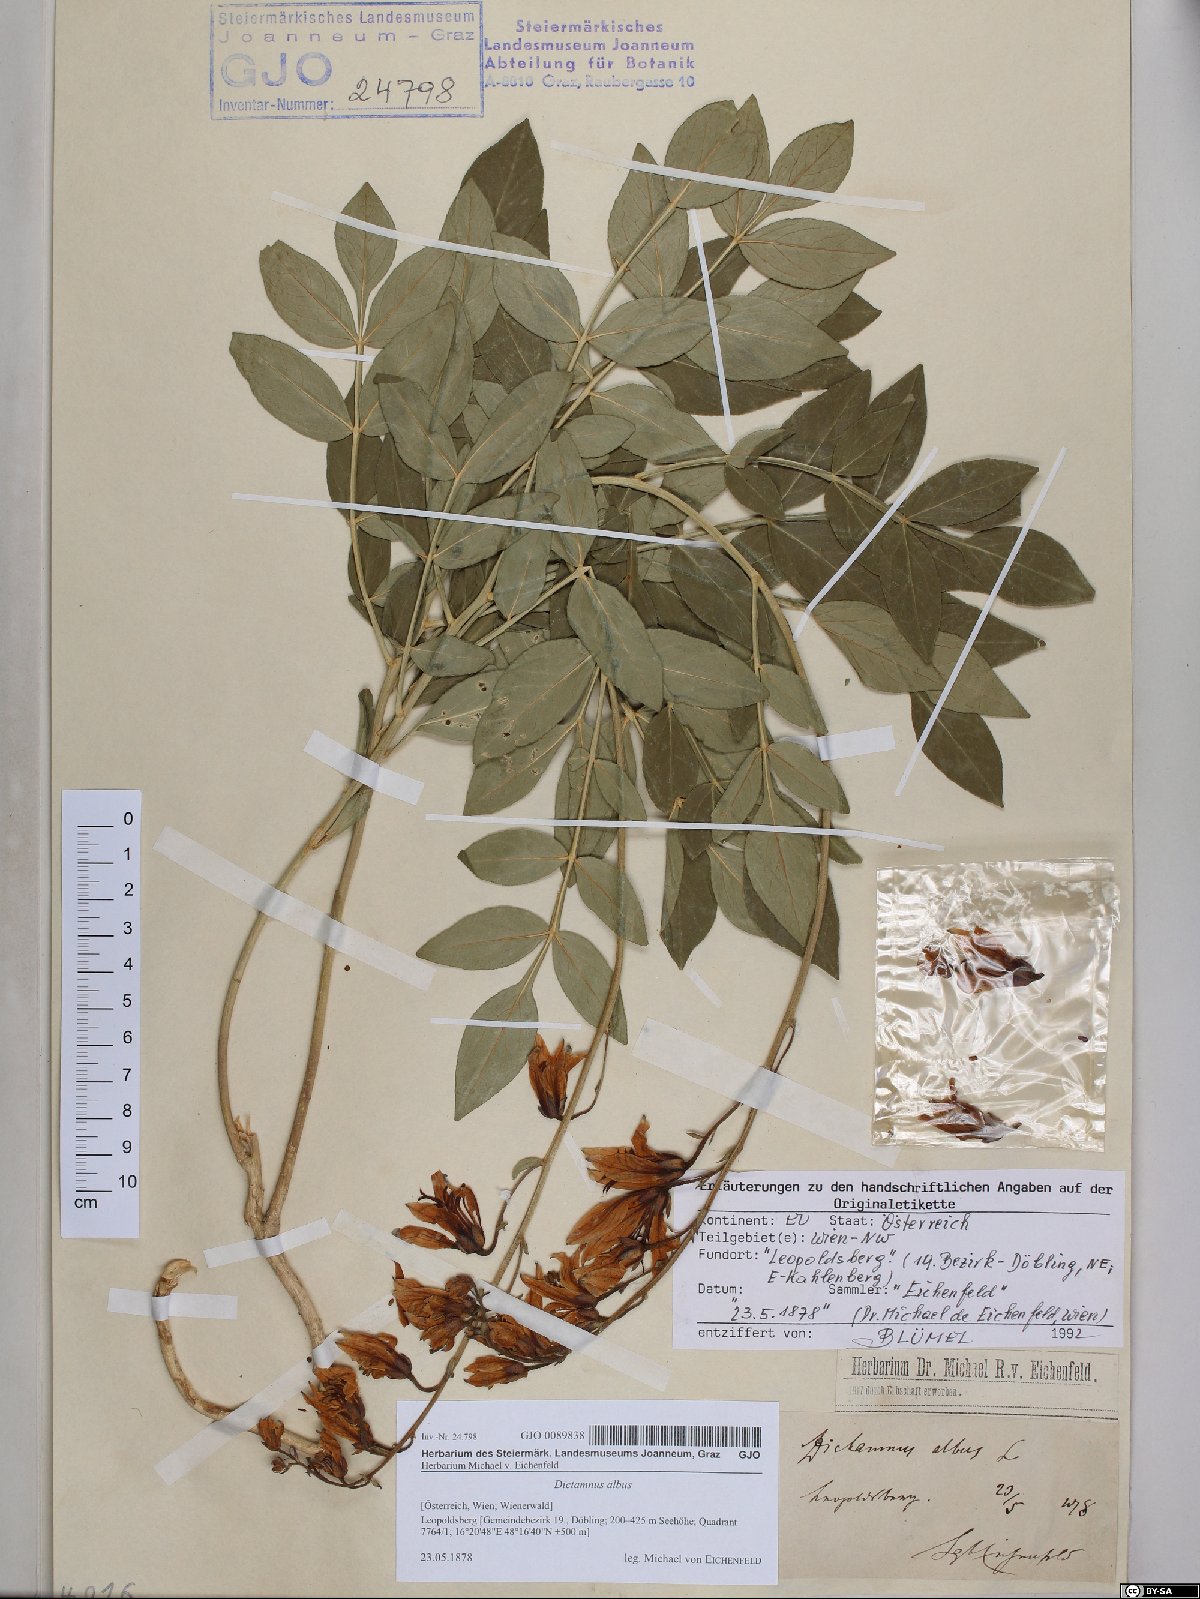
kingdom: Plantae
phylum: Tracheophyta
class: Magnoliopsida
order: Sapindales
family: Rutaceae
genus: Dictamnus
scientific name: Dictamnus albus
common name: Gasplant
